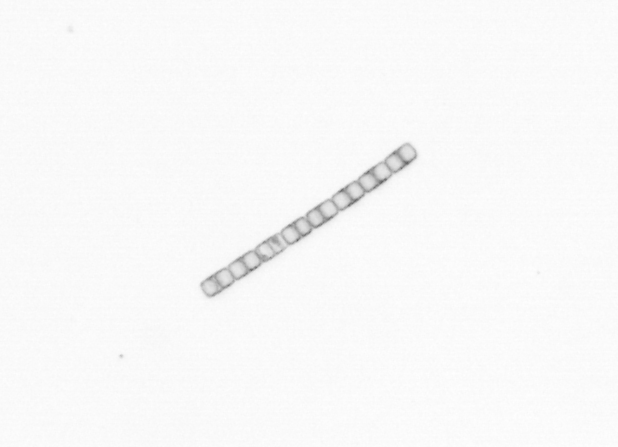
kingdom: Chromista
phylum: Ochrophyta
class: Bacillariophyceae
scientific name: Bacillariophyceae
